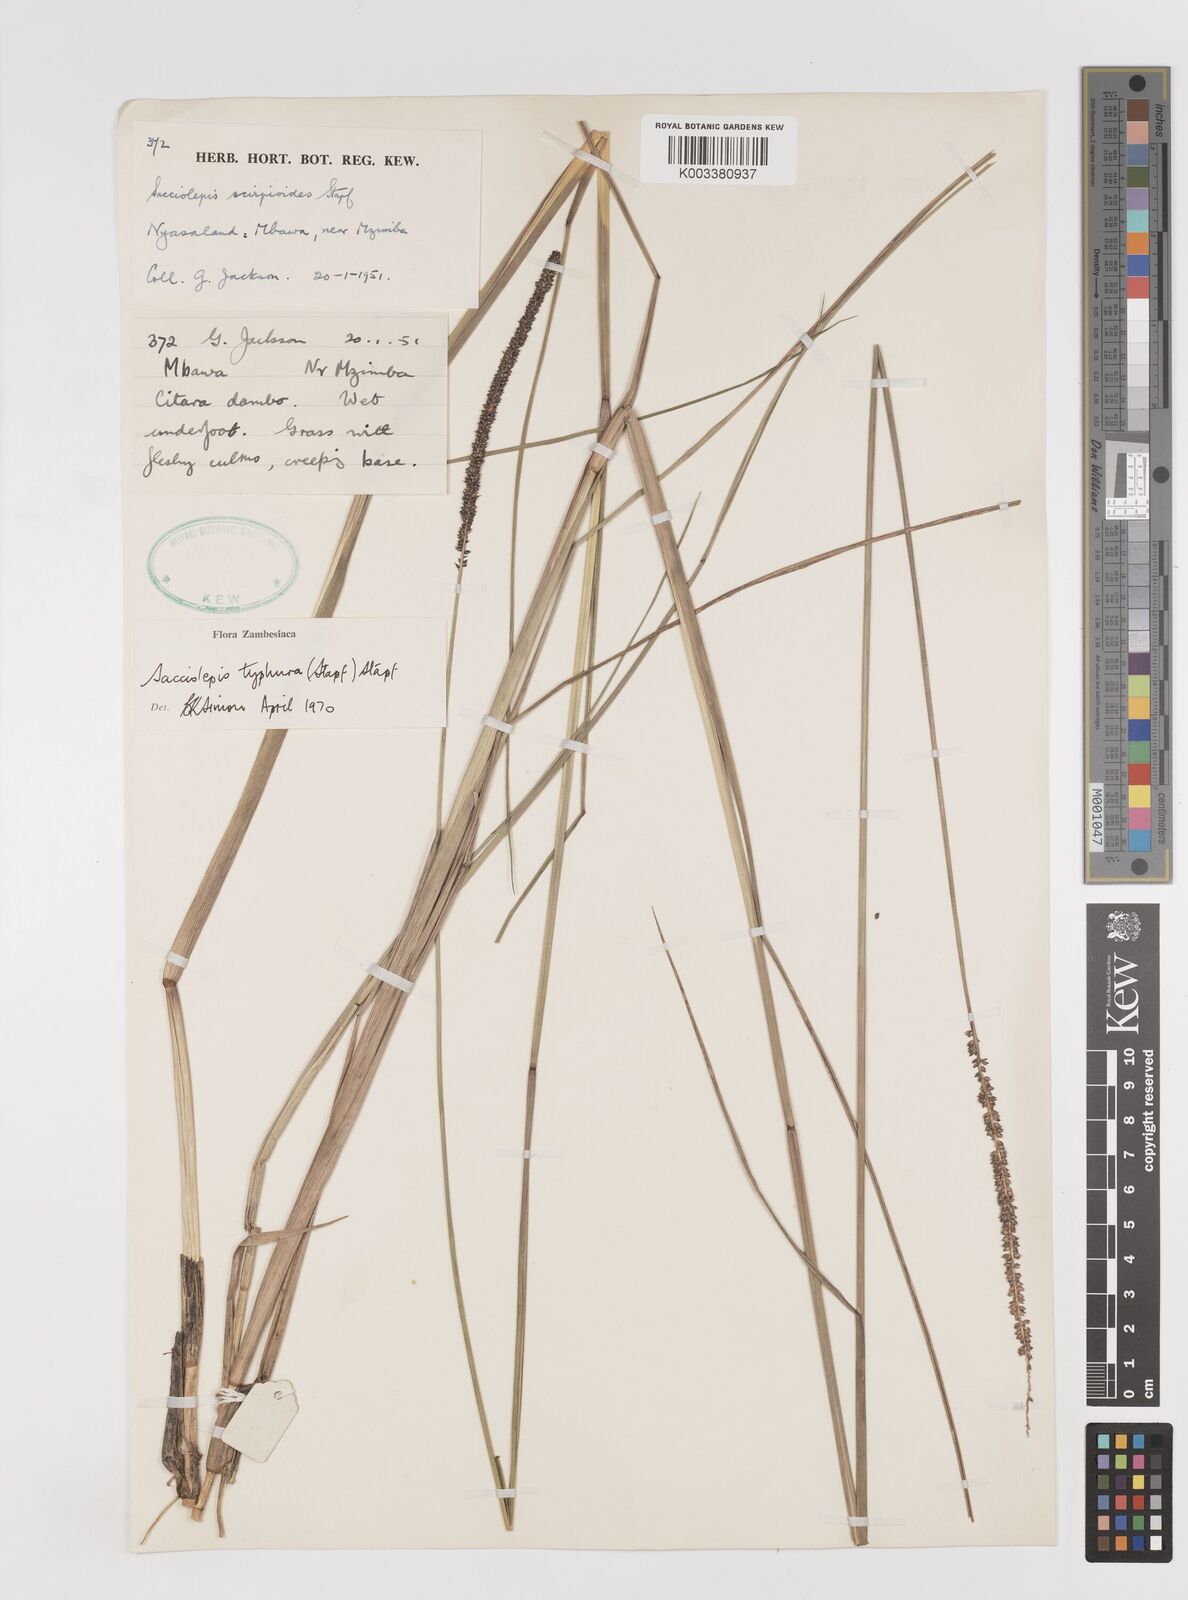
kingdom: Plantae
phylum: Tracheophyta
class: Liliopsida
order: Poales
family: Poaceae
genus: Sacciolepis
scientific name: Sacciolepis typhura
